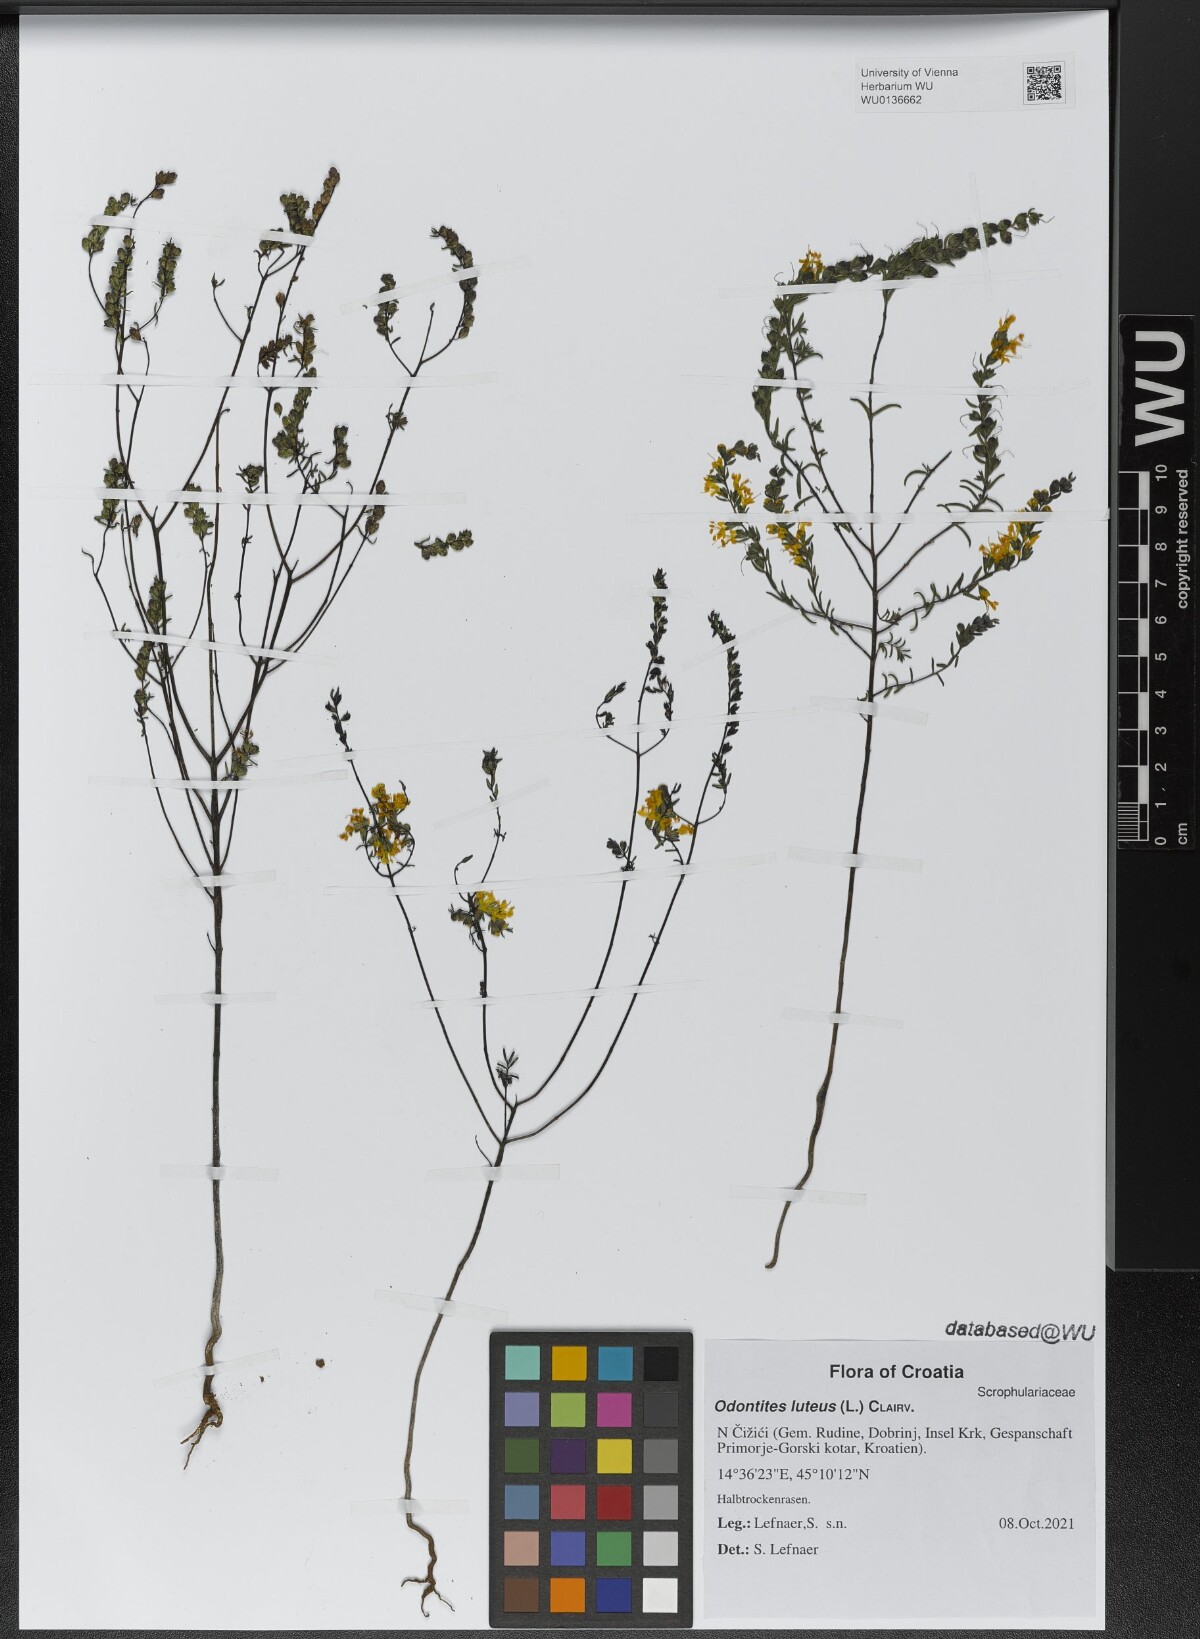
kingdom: Plantae
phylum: Tracheophyta
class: Magnoliopsida
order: Lamiales
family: Orobanchaceae
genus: Odontites
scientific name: Odontites luteus
